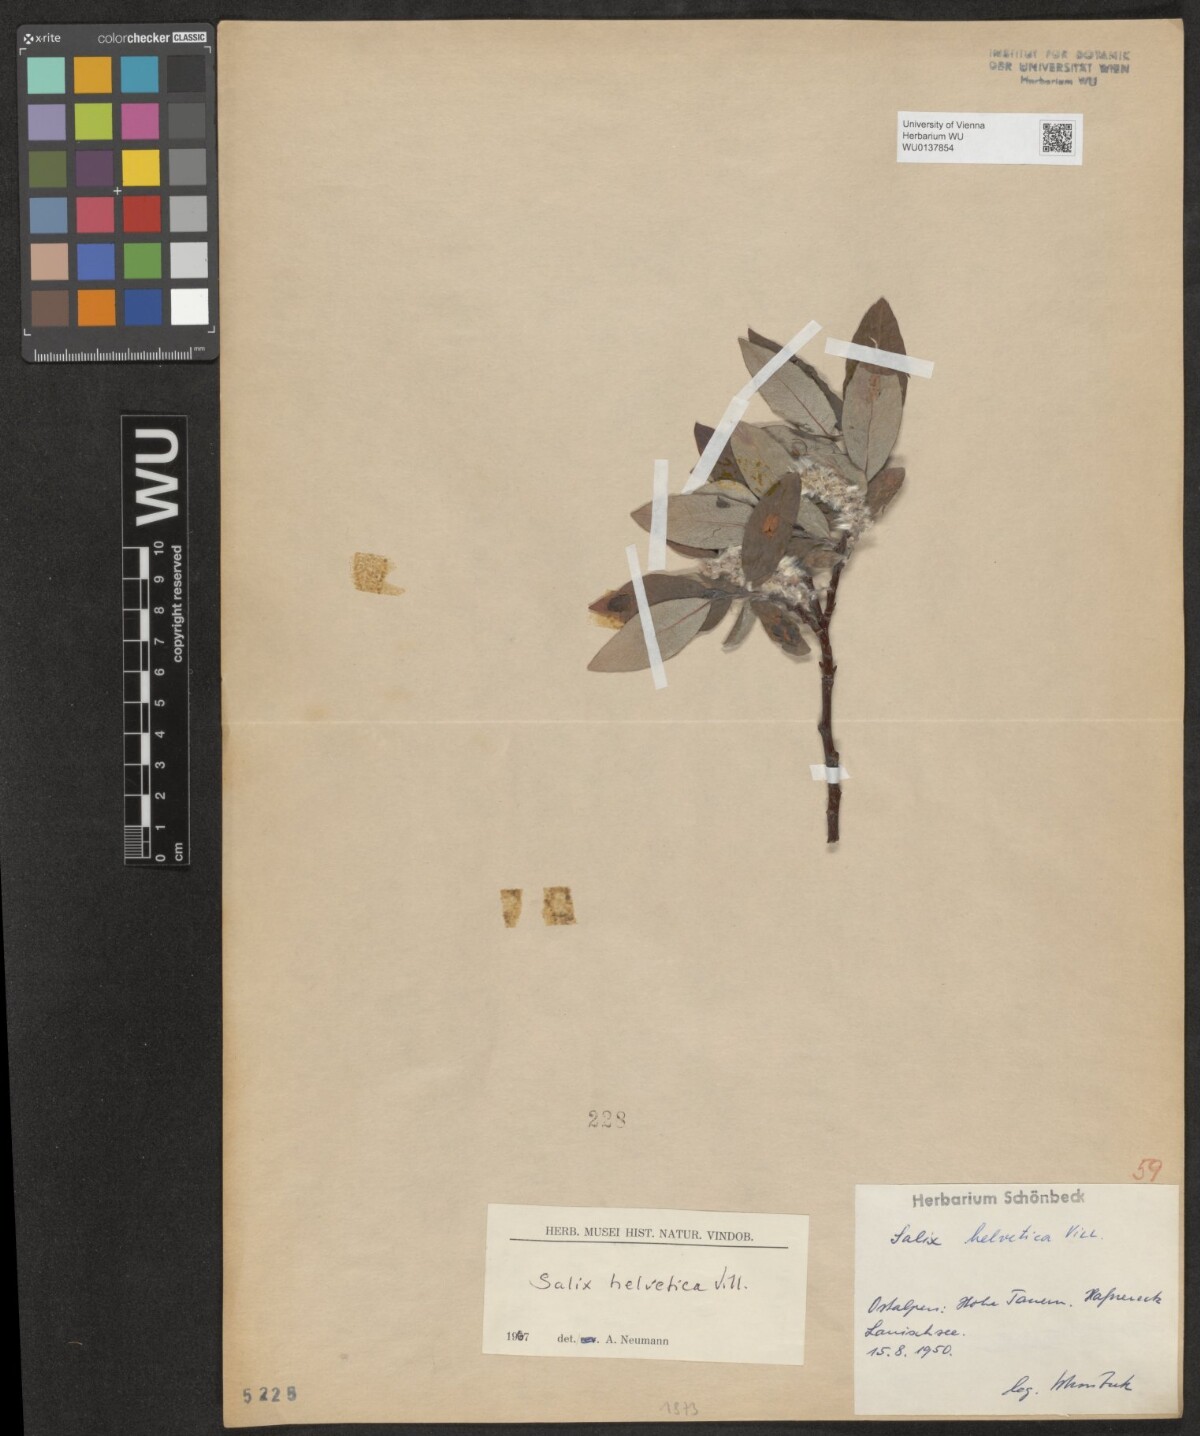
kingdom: Plantae
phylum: Tracheophyta
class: Magnoliopsida
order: Malpighiales
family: Salicaceae
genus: Salix
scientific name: Salix helvetica
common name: Swiss willow
